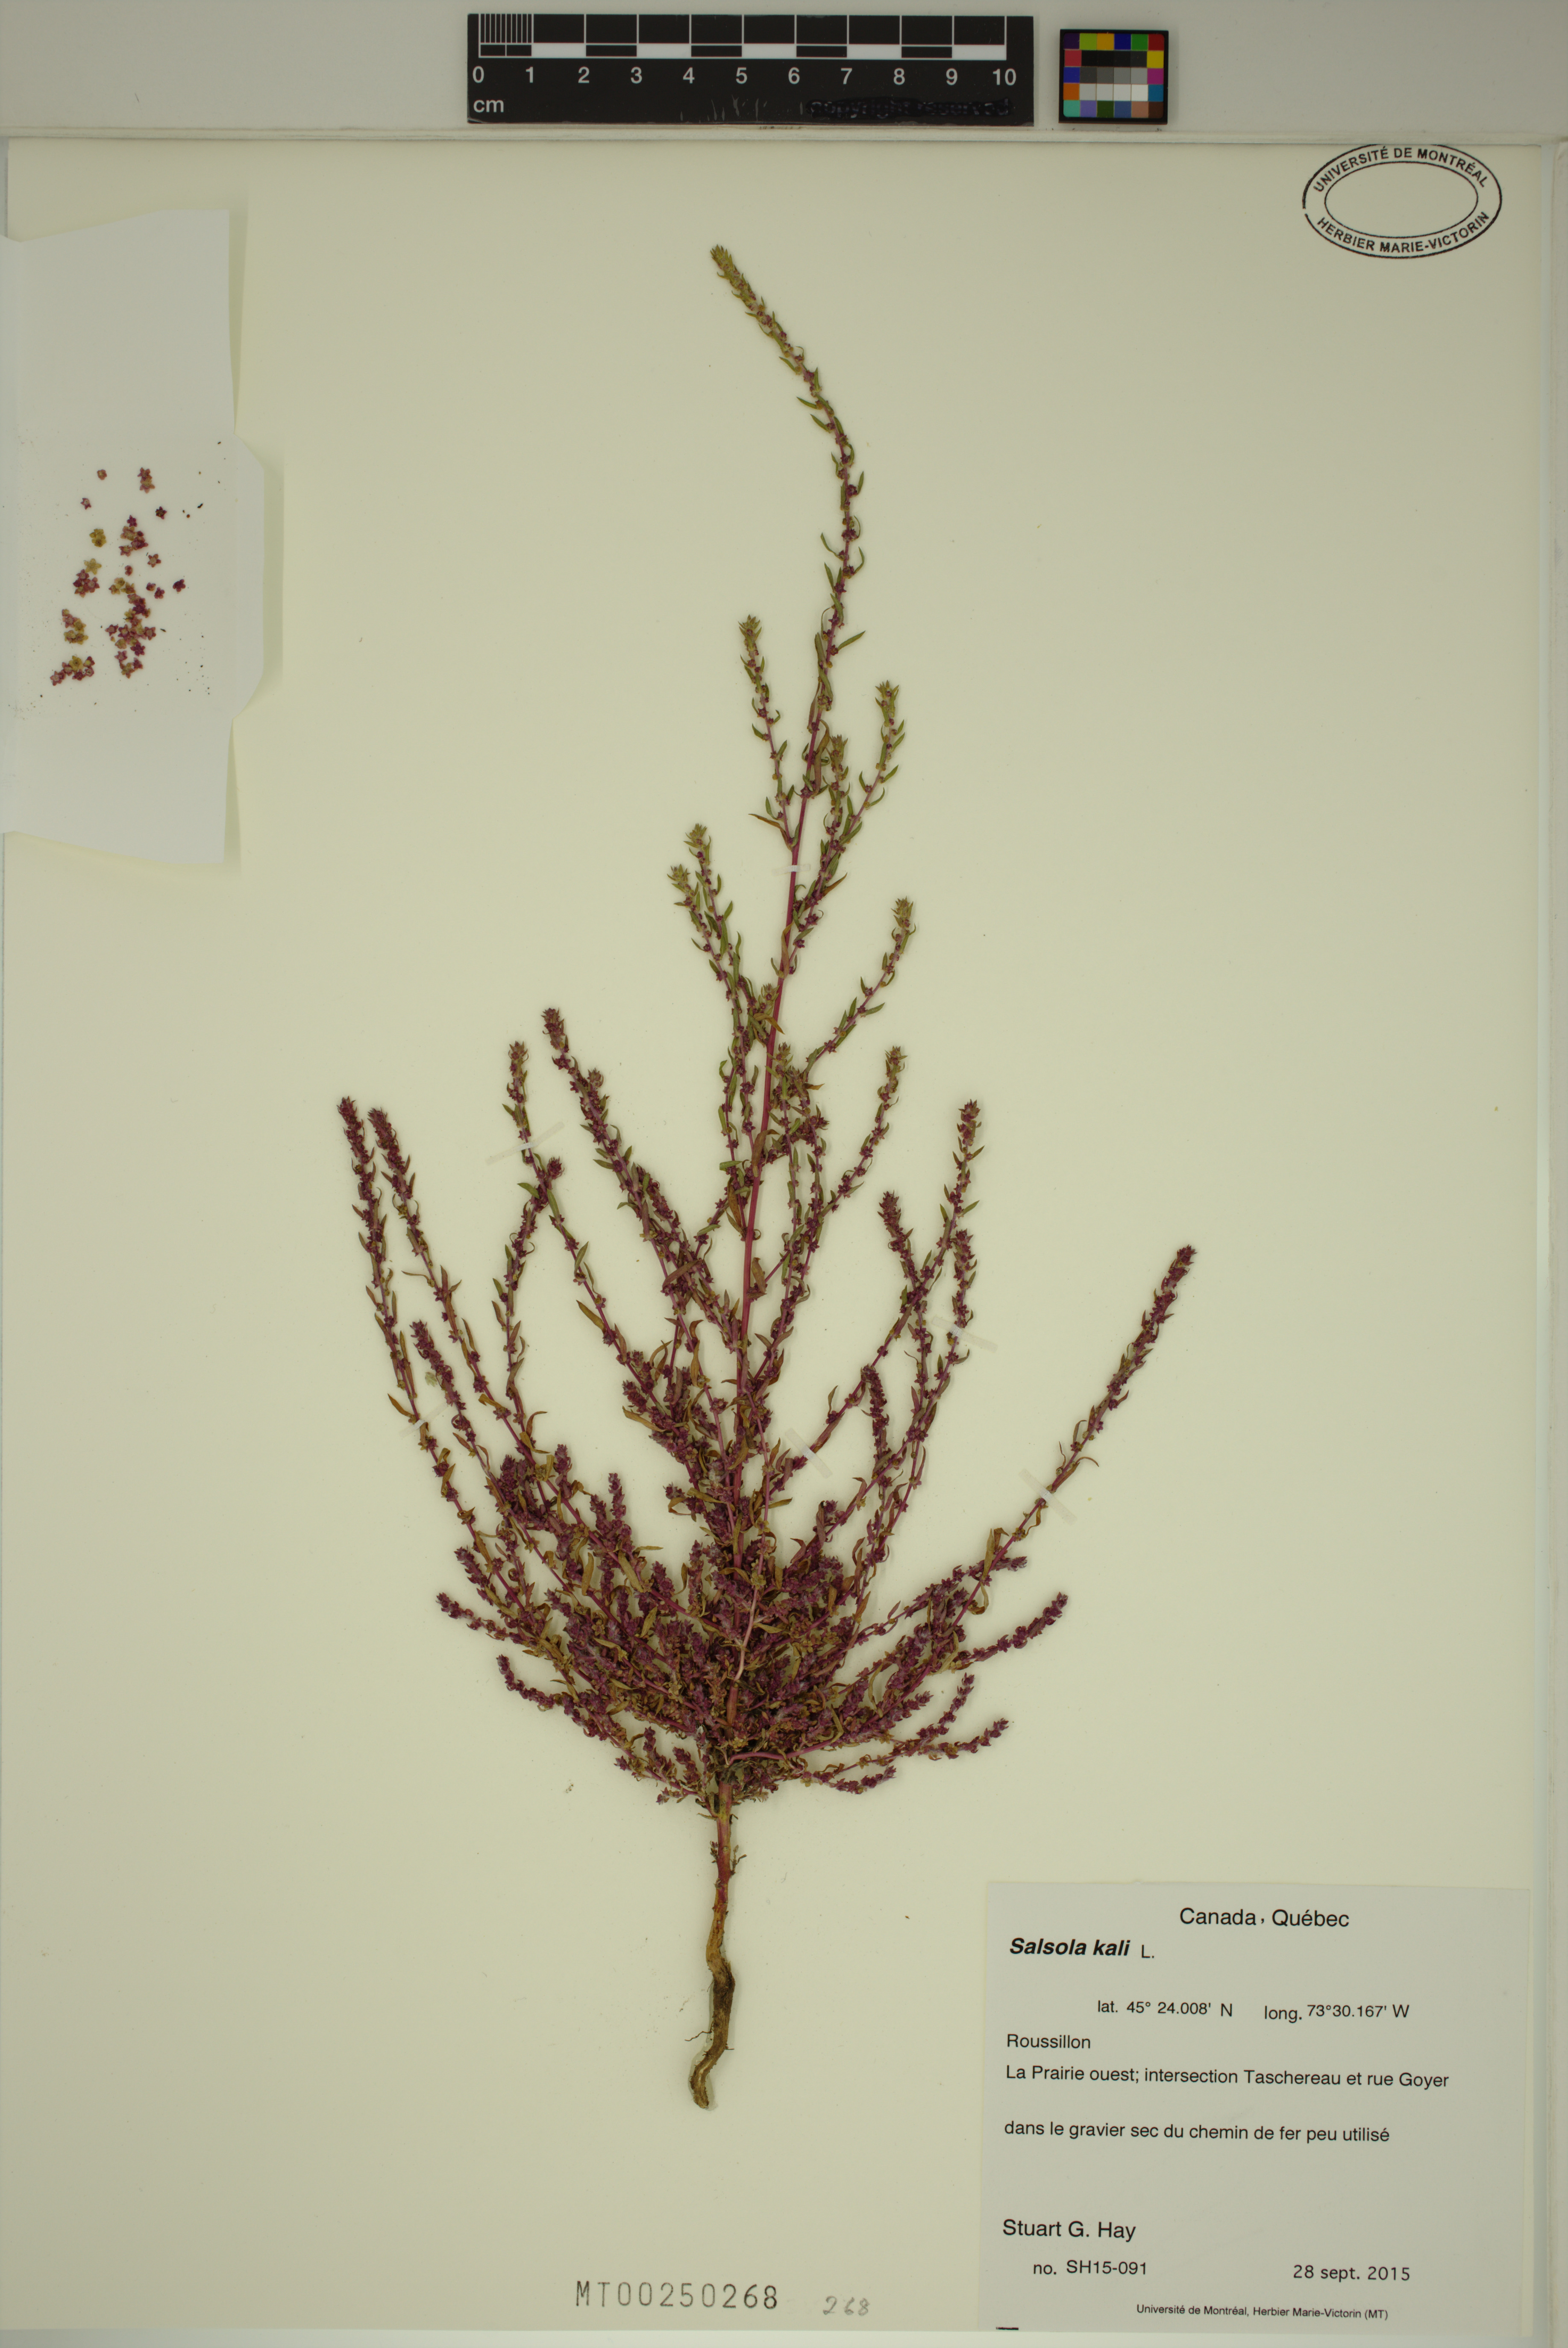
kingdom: Plantae
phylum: Tracheophyta
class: Magnoliopsida
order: Caryophyllales
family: Amaranthaceae
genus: Salsola
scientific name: Salsola kali
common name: Saltwort
